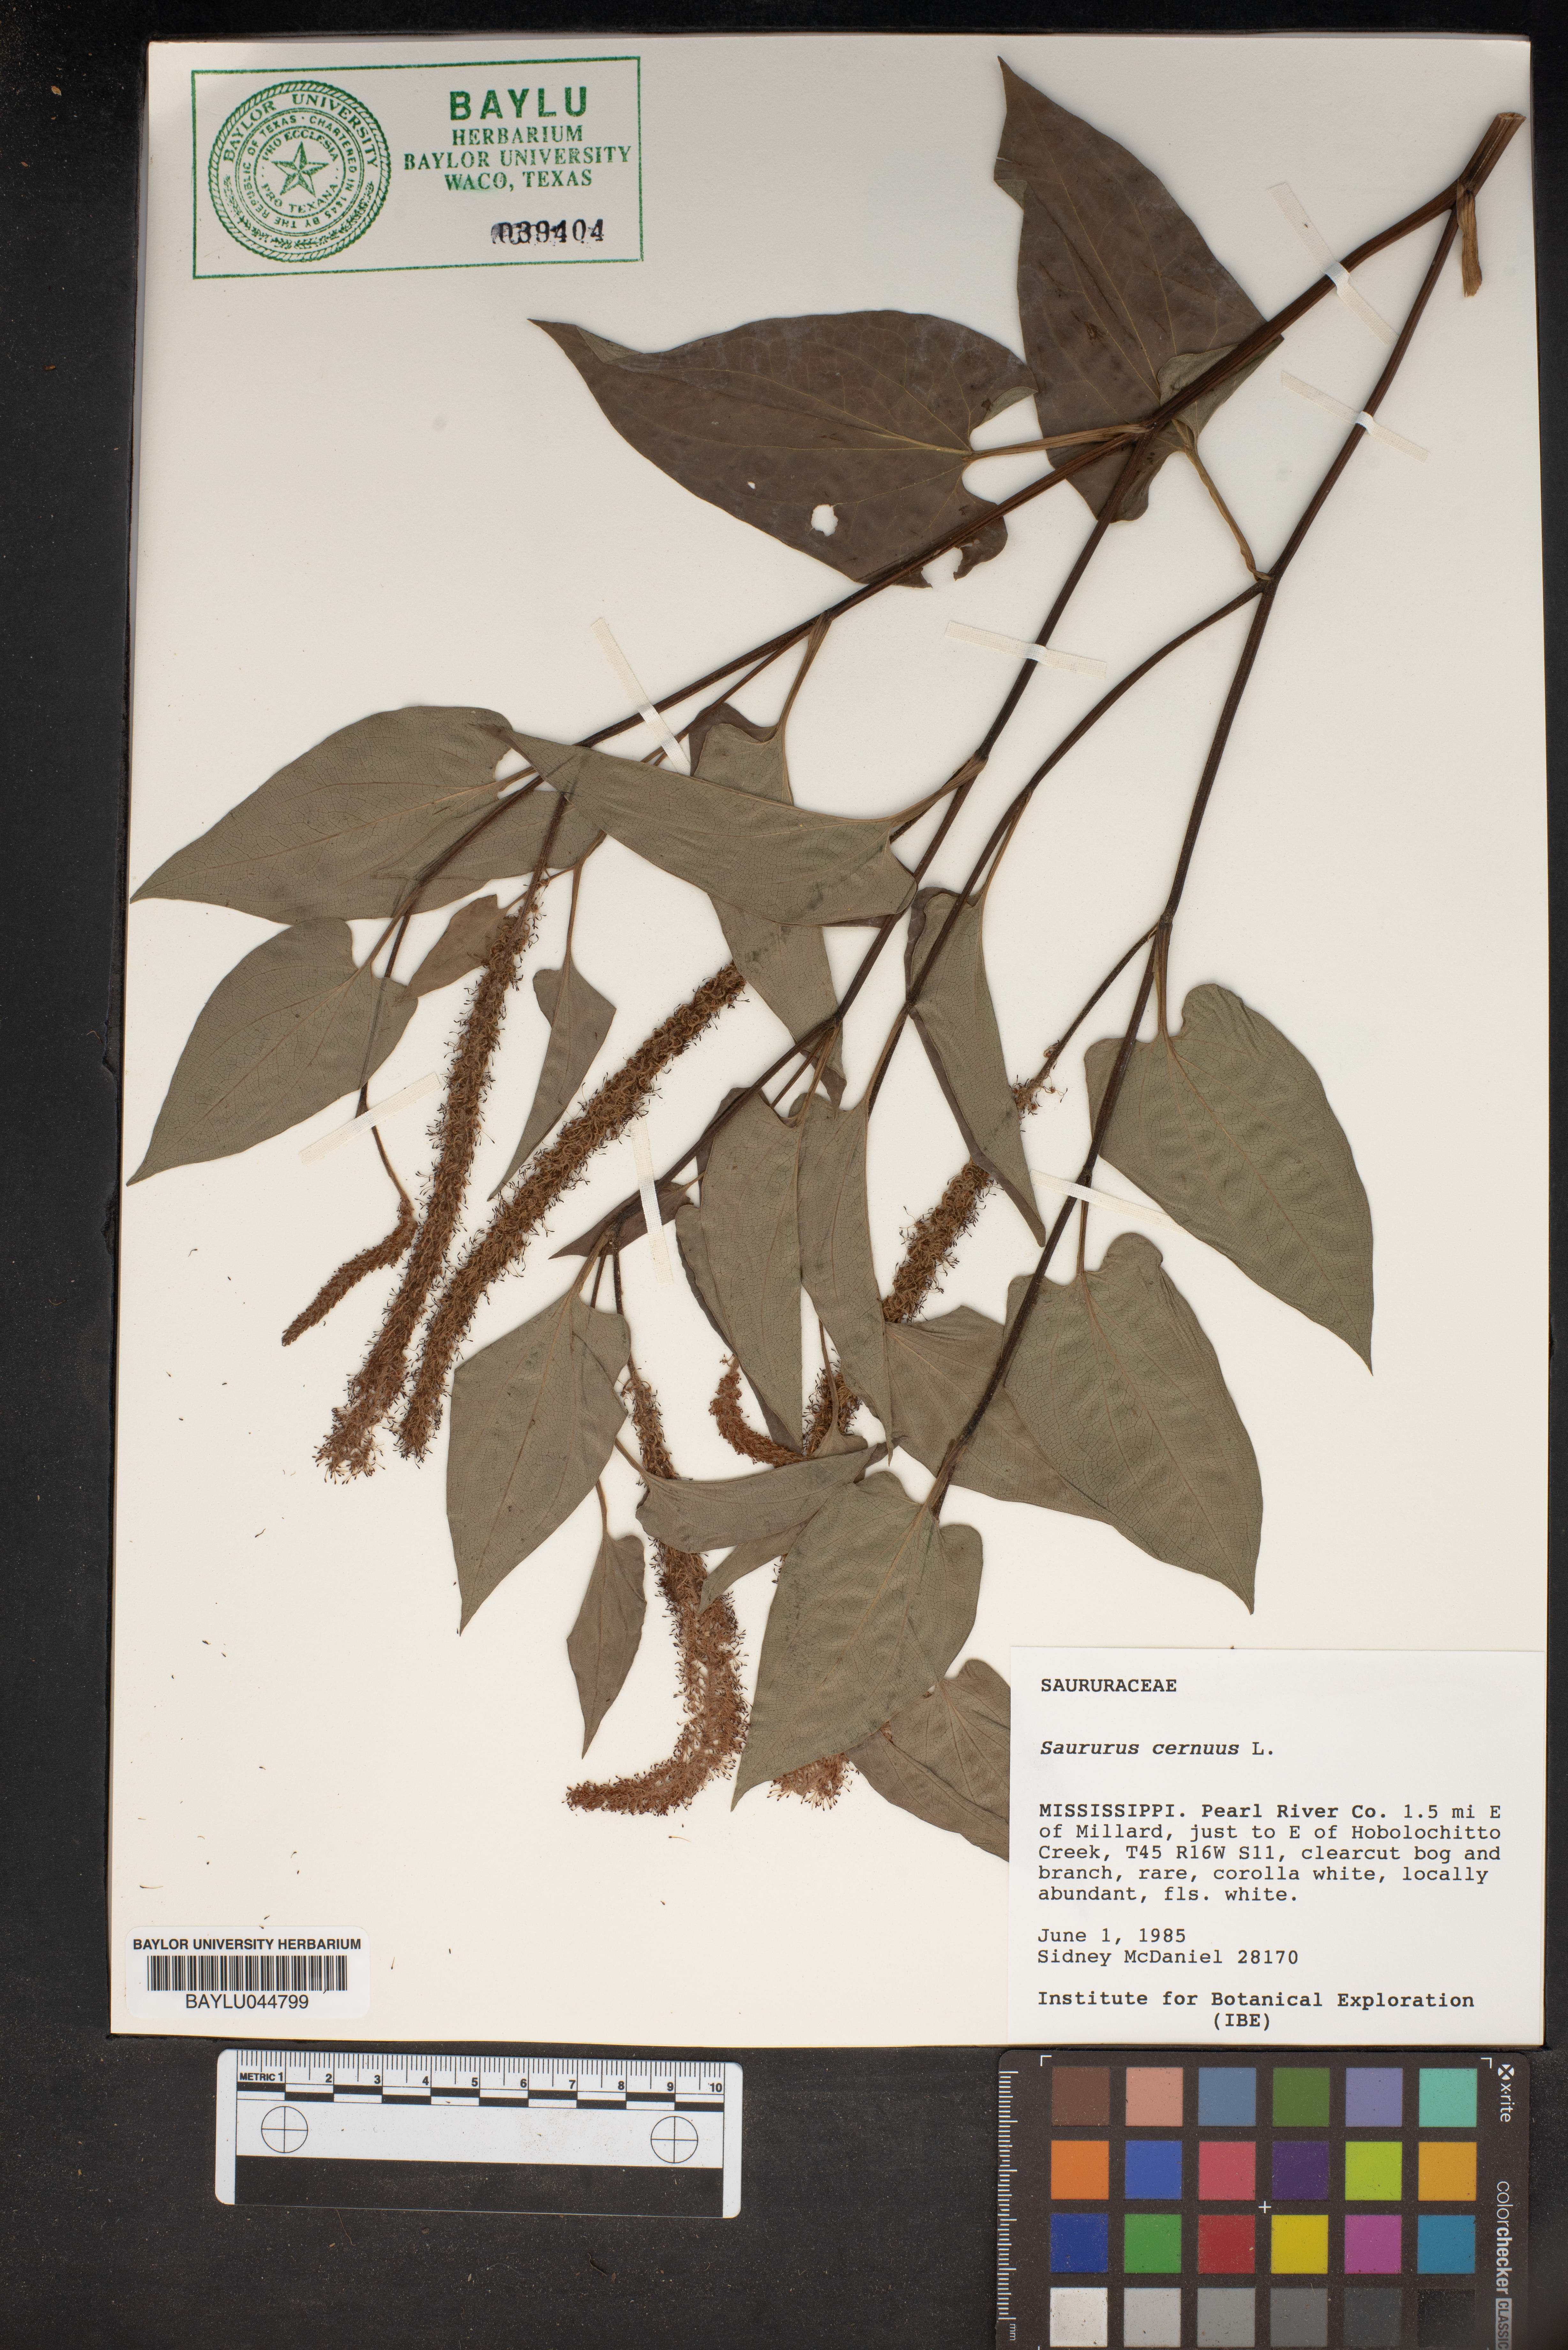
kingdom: Plantae
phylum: Tracheophyta
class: Magnoliopsida
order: Piperales
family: Saururaceae
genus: Saururus
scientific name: Saururus cernuus
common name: Lizard's-tail
